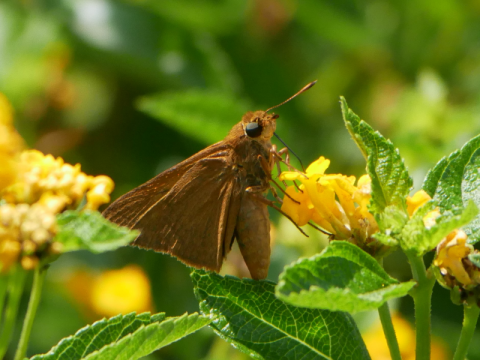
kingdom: Animalia
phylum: Arthropoda
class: Insecta
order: Lepidoptera
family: Hesperiidae
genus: Euphyes
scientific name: Euphyes pilatka
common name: Palatka Skipper
